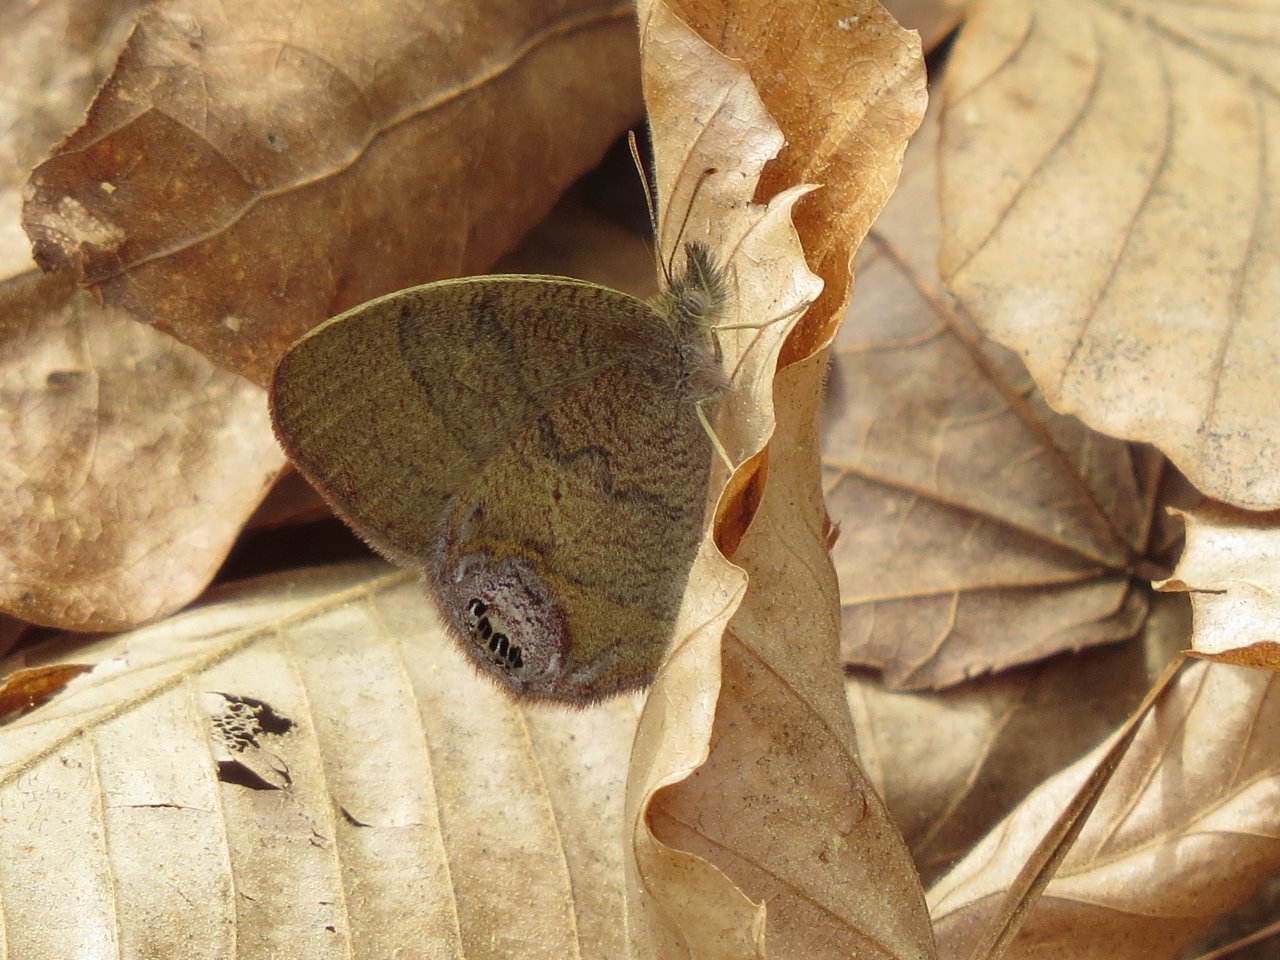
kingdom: Animalia
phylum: Arthropoda
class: Insecta
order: Lepidoptera
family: Nymphalidae
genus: Euptychia
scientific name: Euptychia cornelius
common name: Gemmed Satyr
